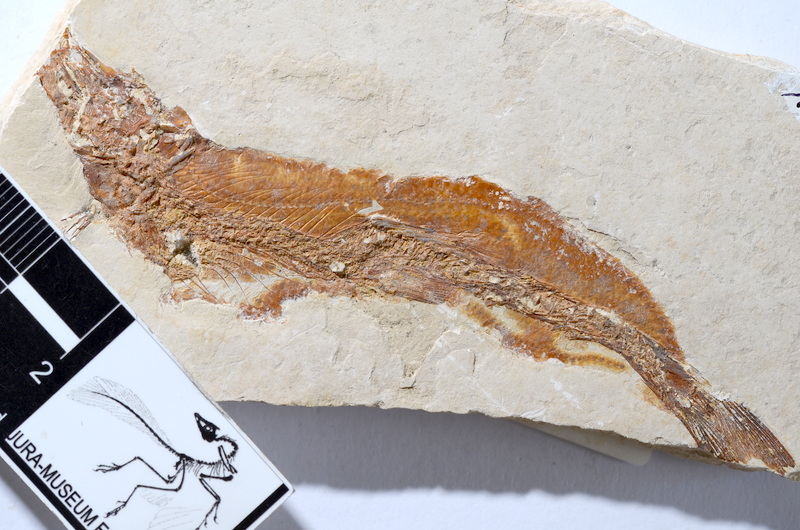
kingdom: Animalia
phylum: Chordata
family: Ascalaboidae
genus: Tharsis
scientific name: Tharsis dubius
